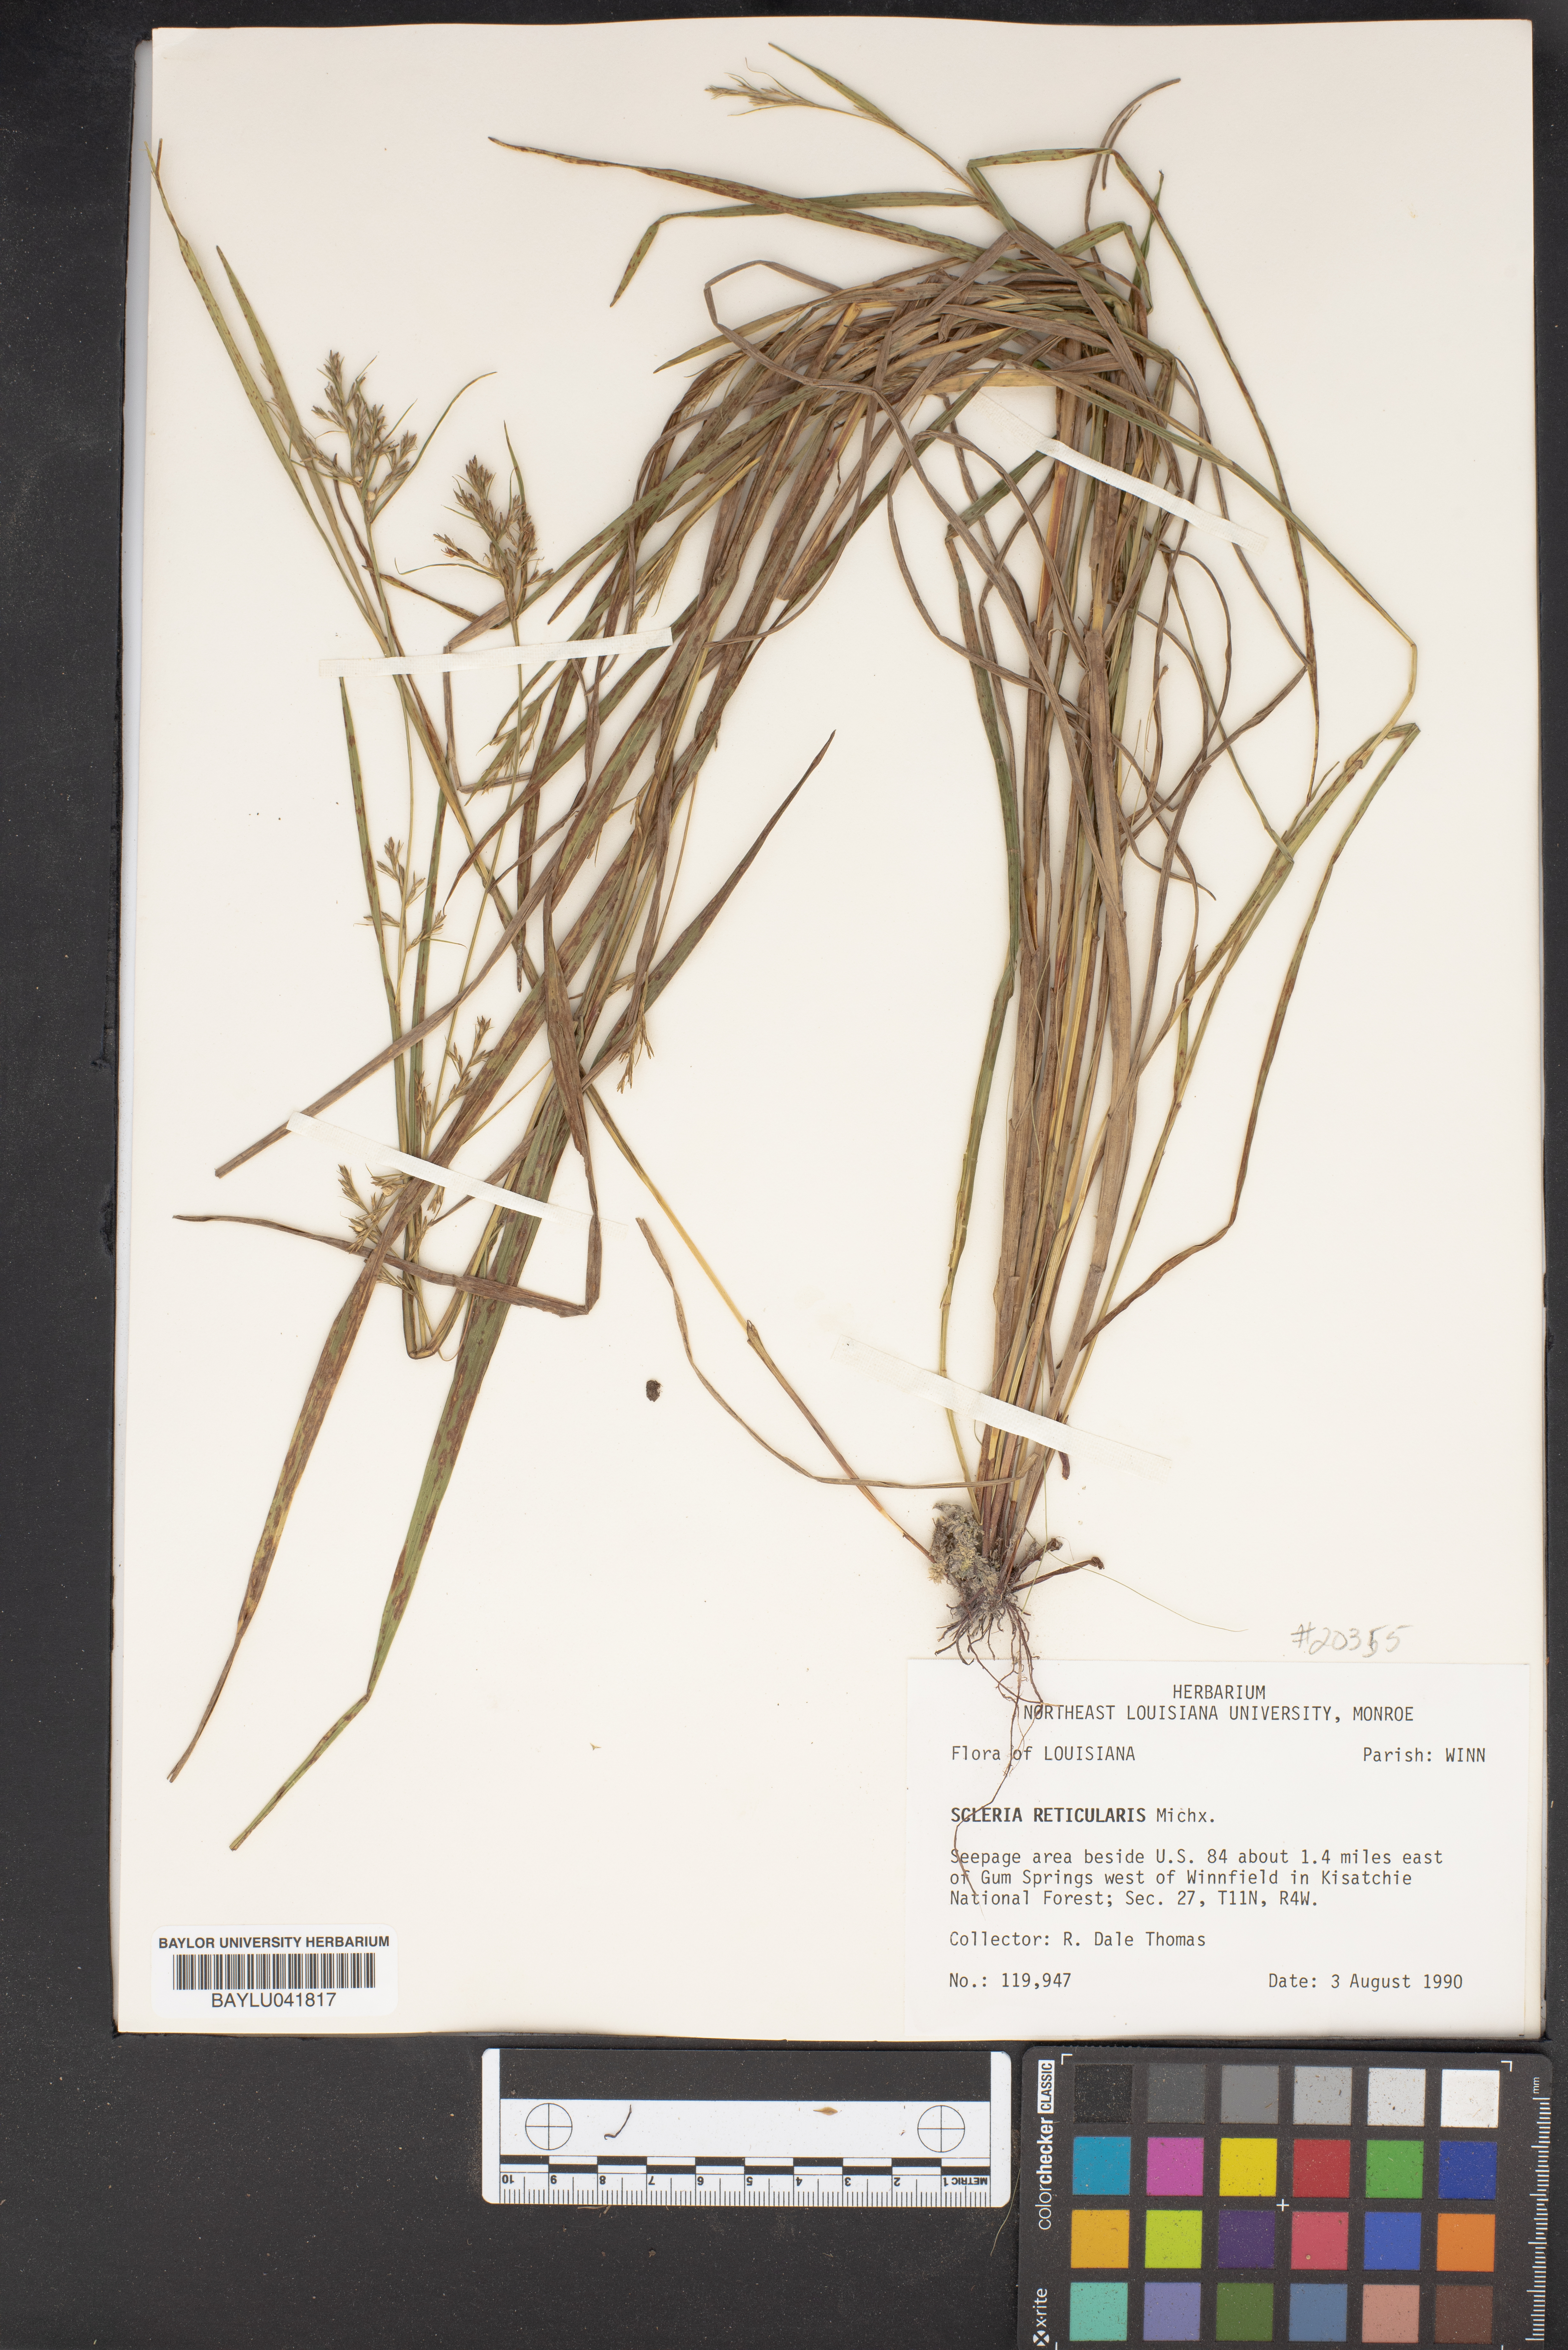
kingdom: Plantae
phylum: Tracheophyta
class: Liliopsida
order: Poales
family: Cyperaceae
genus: Scleria
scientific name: Scleria reticularis
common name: Netted nutrush
